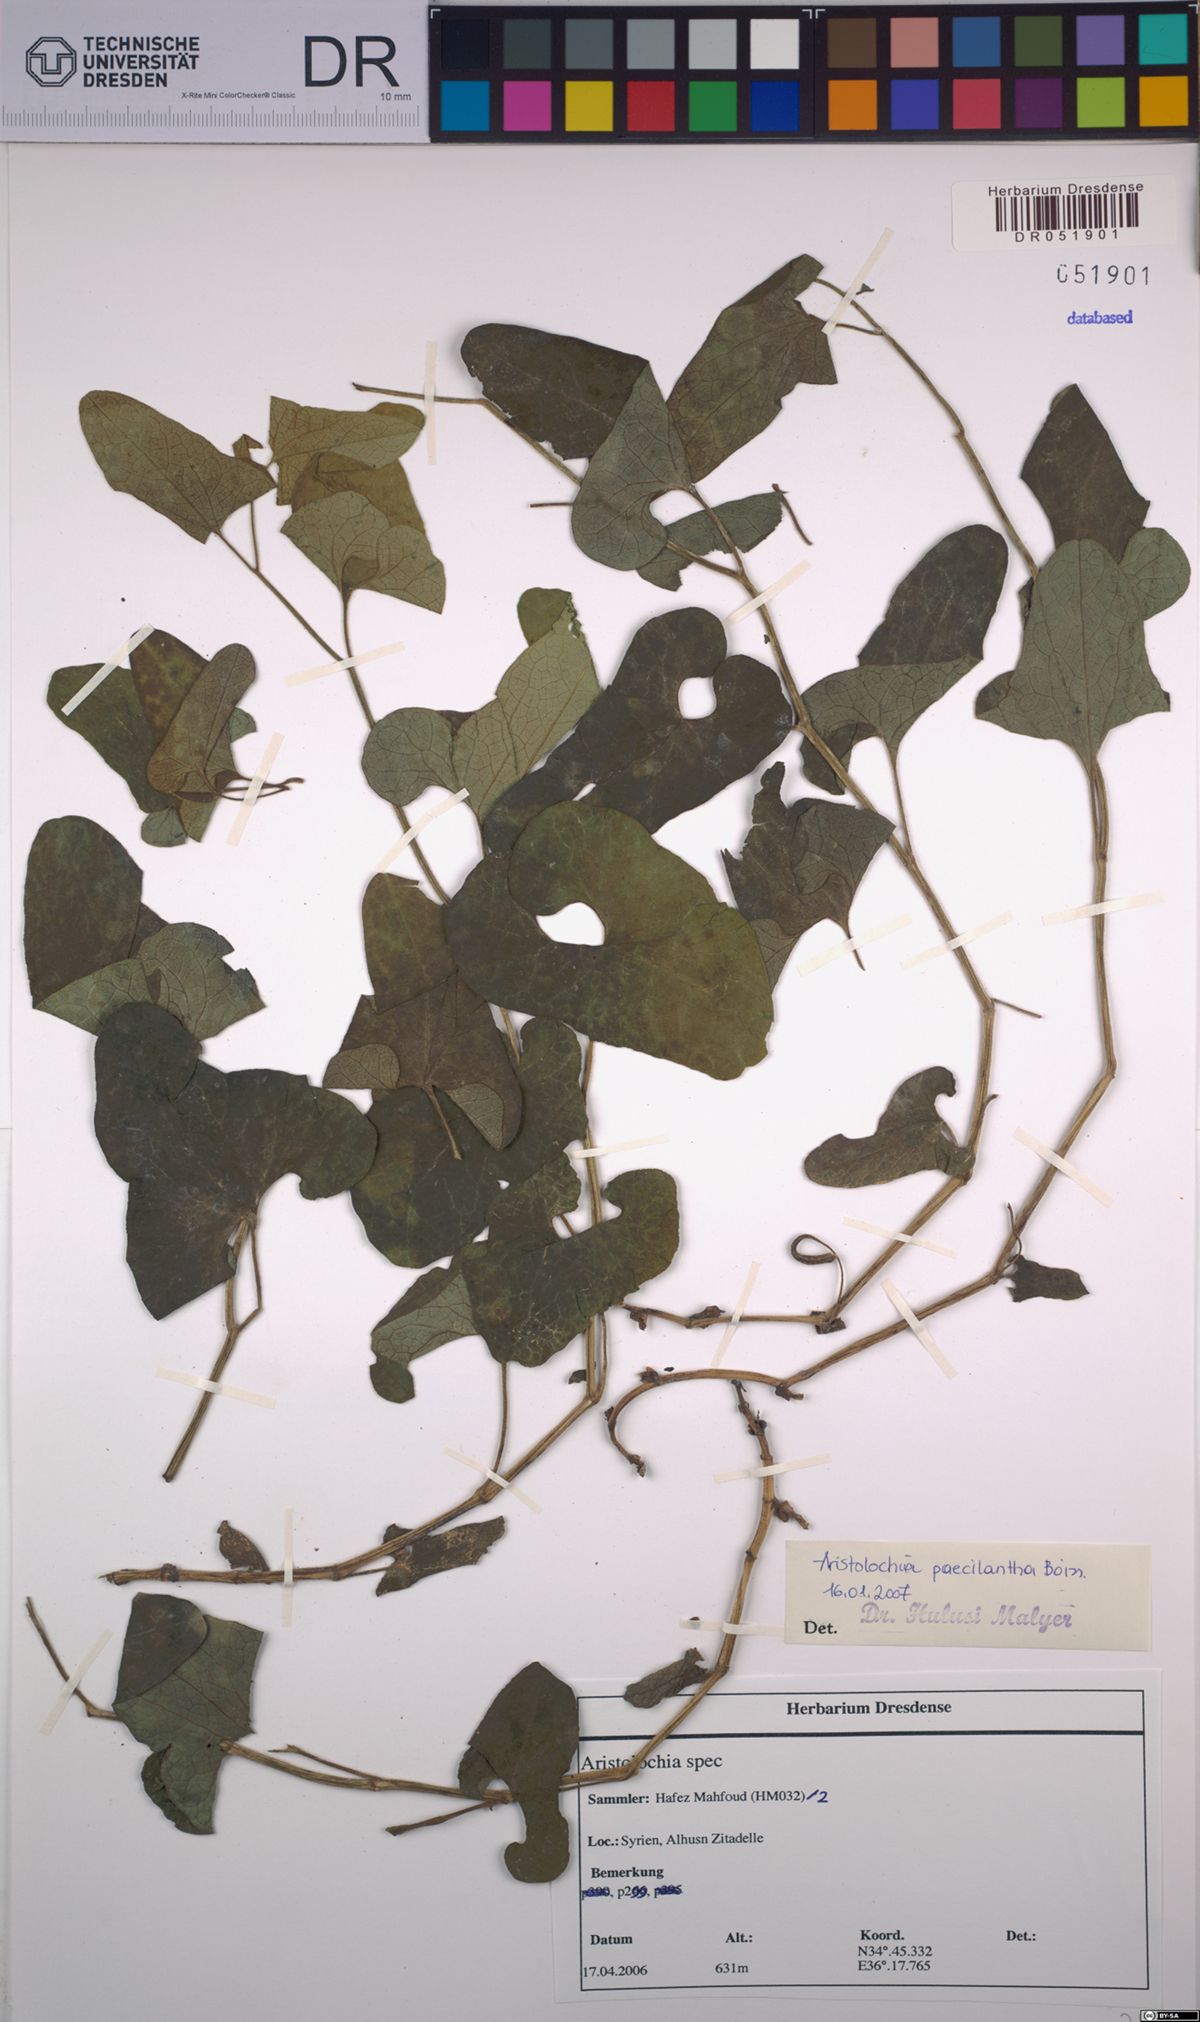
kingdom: Plantae
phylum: Tracheophyta
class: Magnoliopsida
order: Piperales
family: Aristolochiaceae
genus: Aristolochia
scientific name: Aristolochia paecilantha
